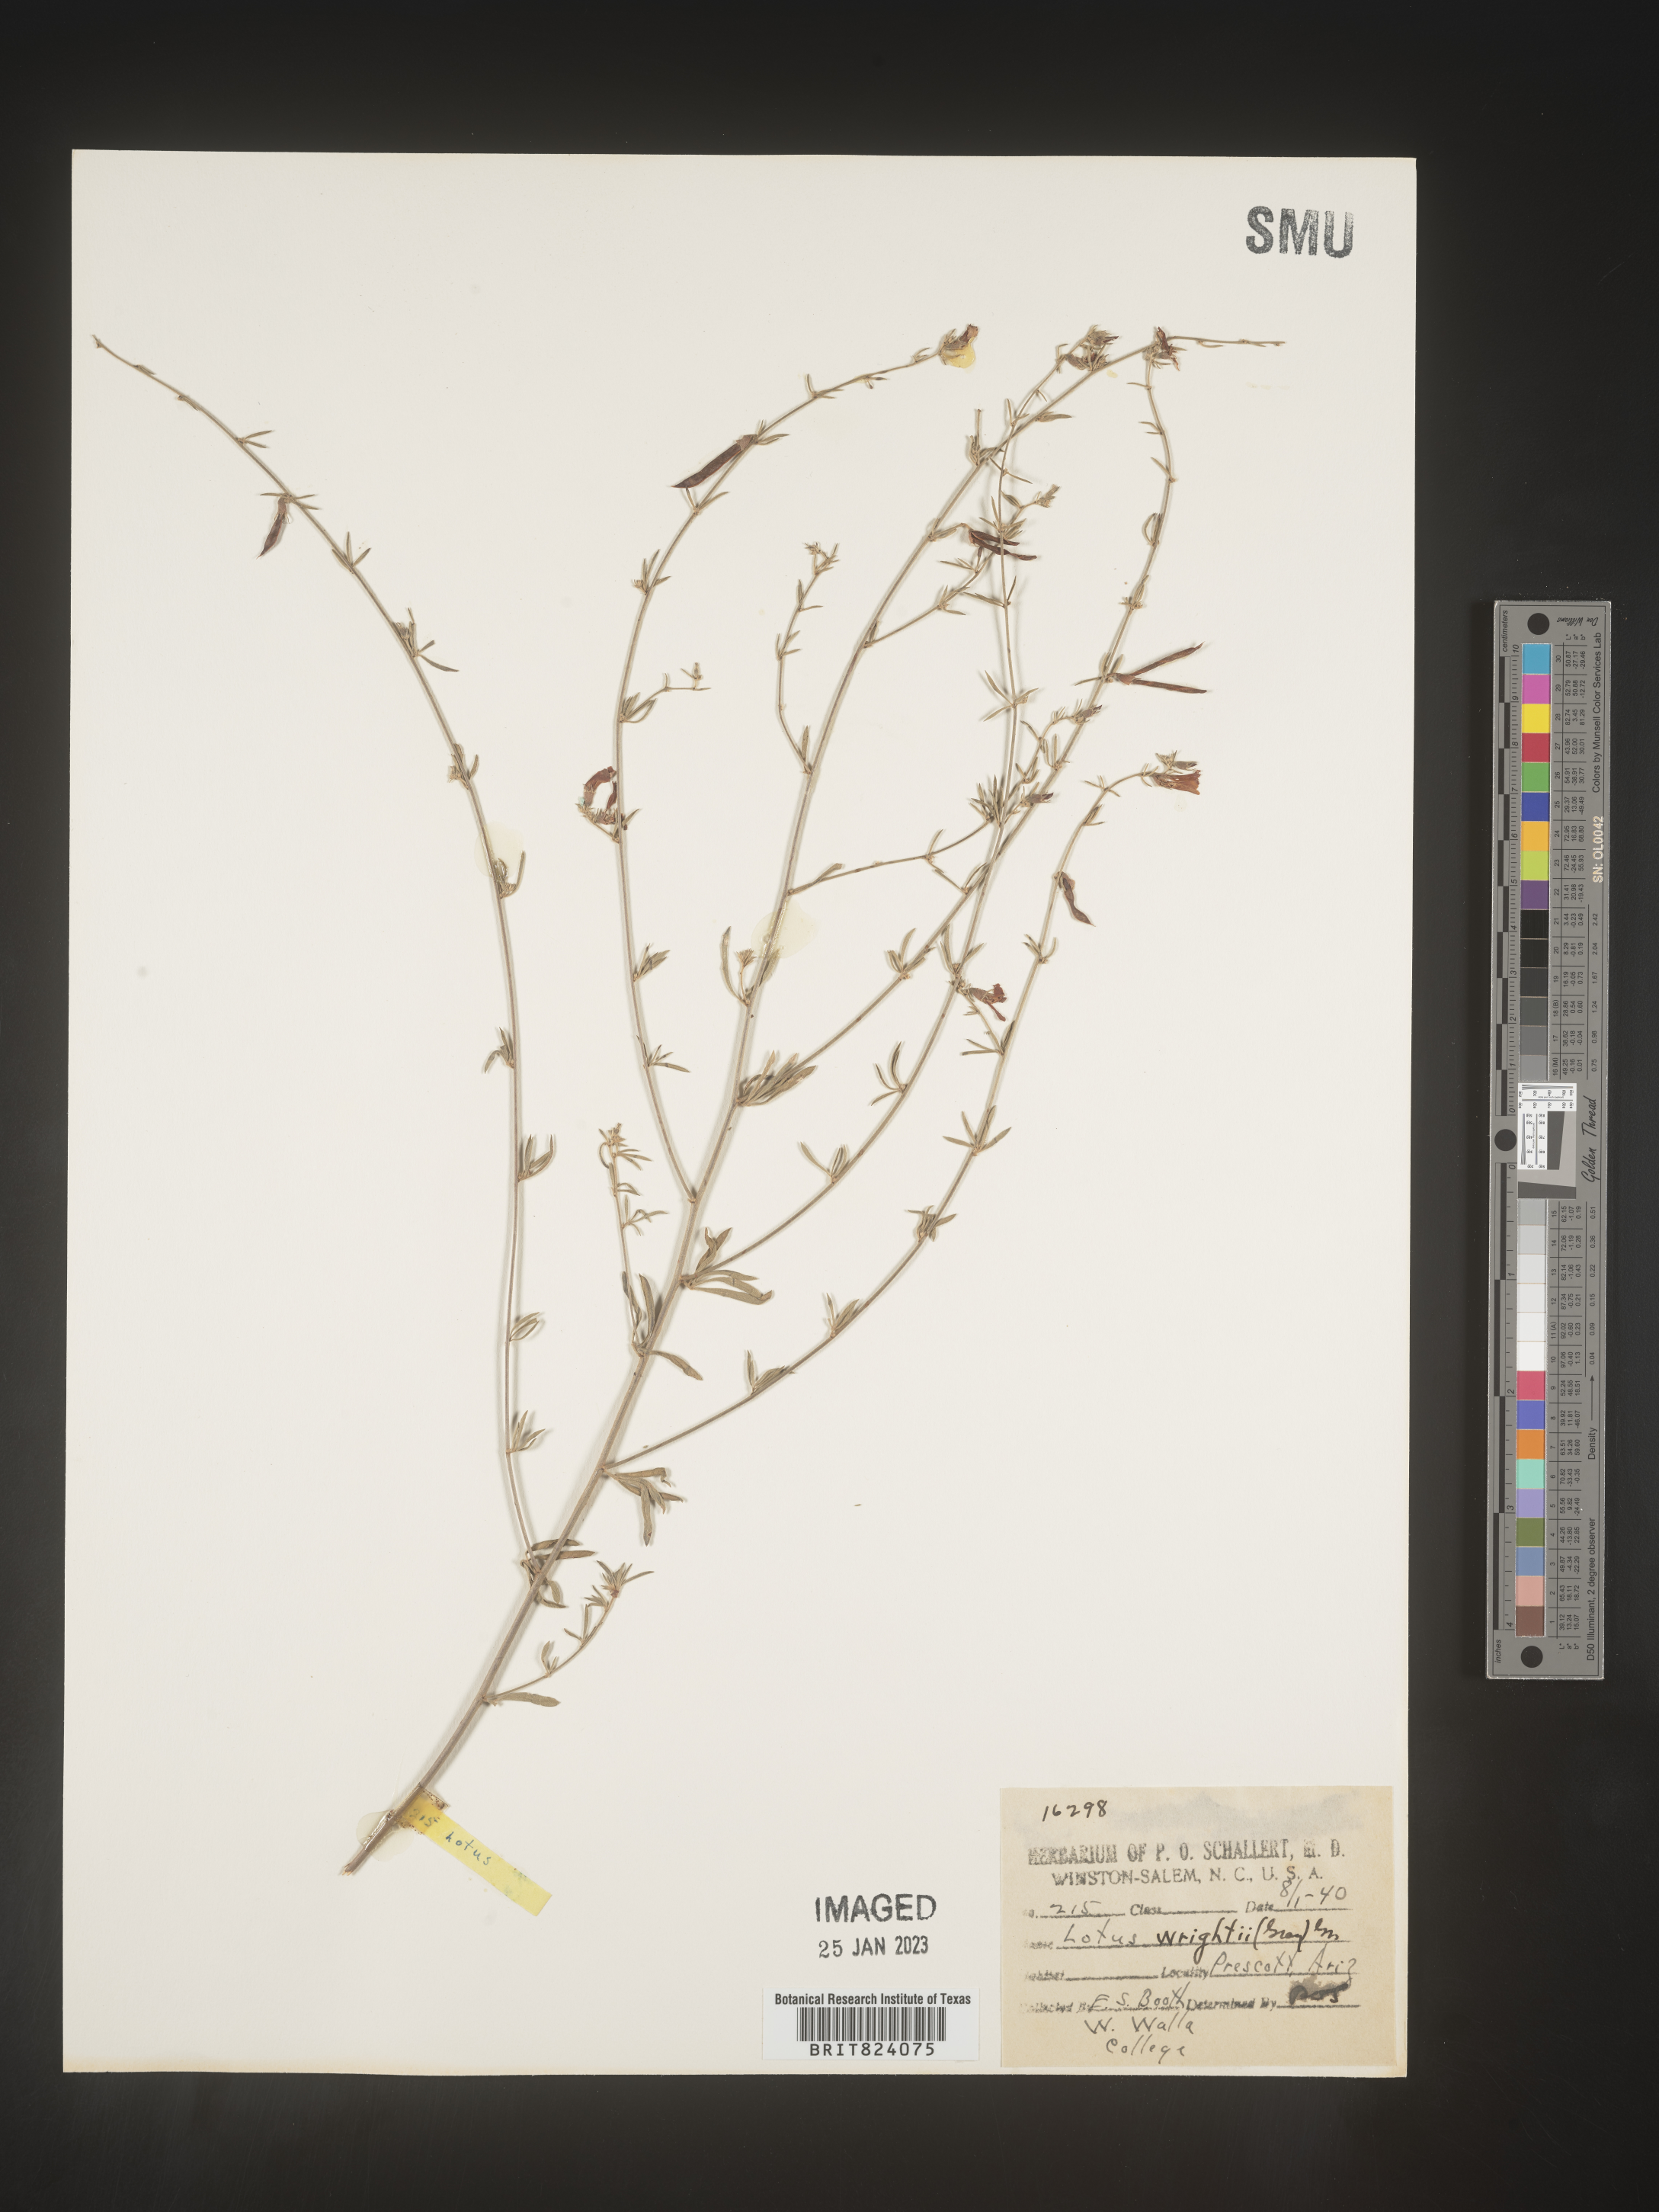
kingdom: Plantae
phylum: Tracheophyta
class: Magnoliopsida
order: Fabales
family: Fabaceae
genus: Acmispon
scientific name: Acmispon wrightii
